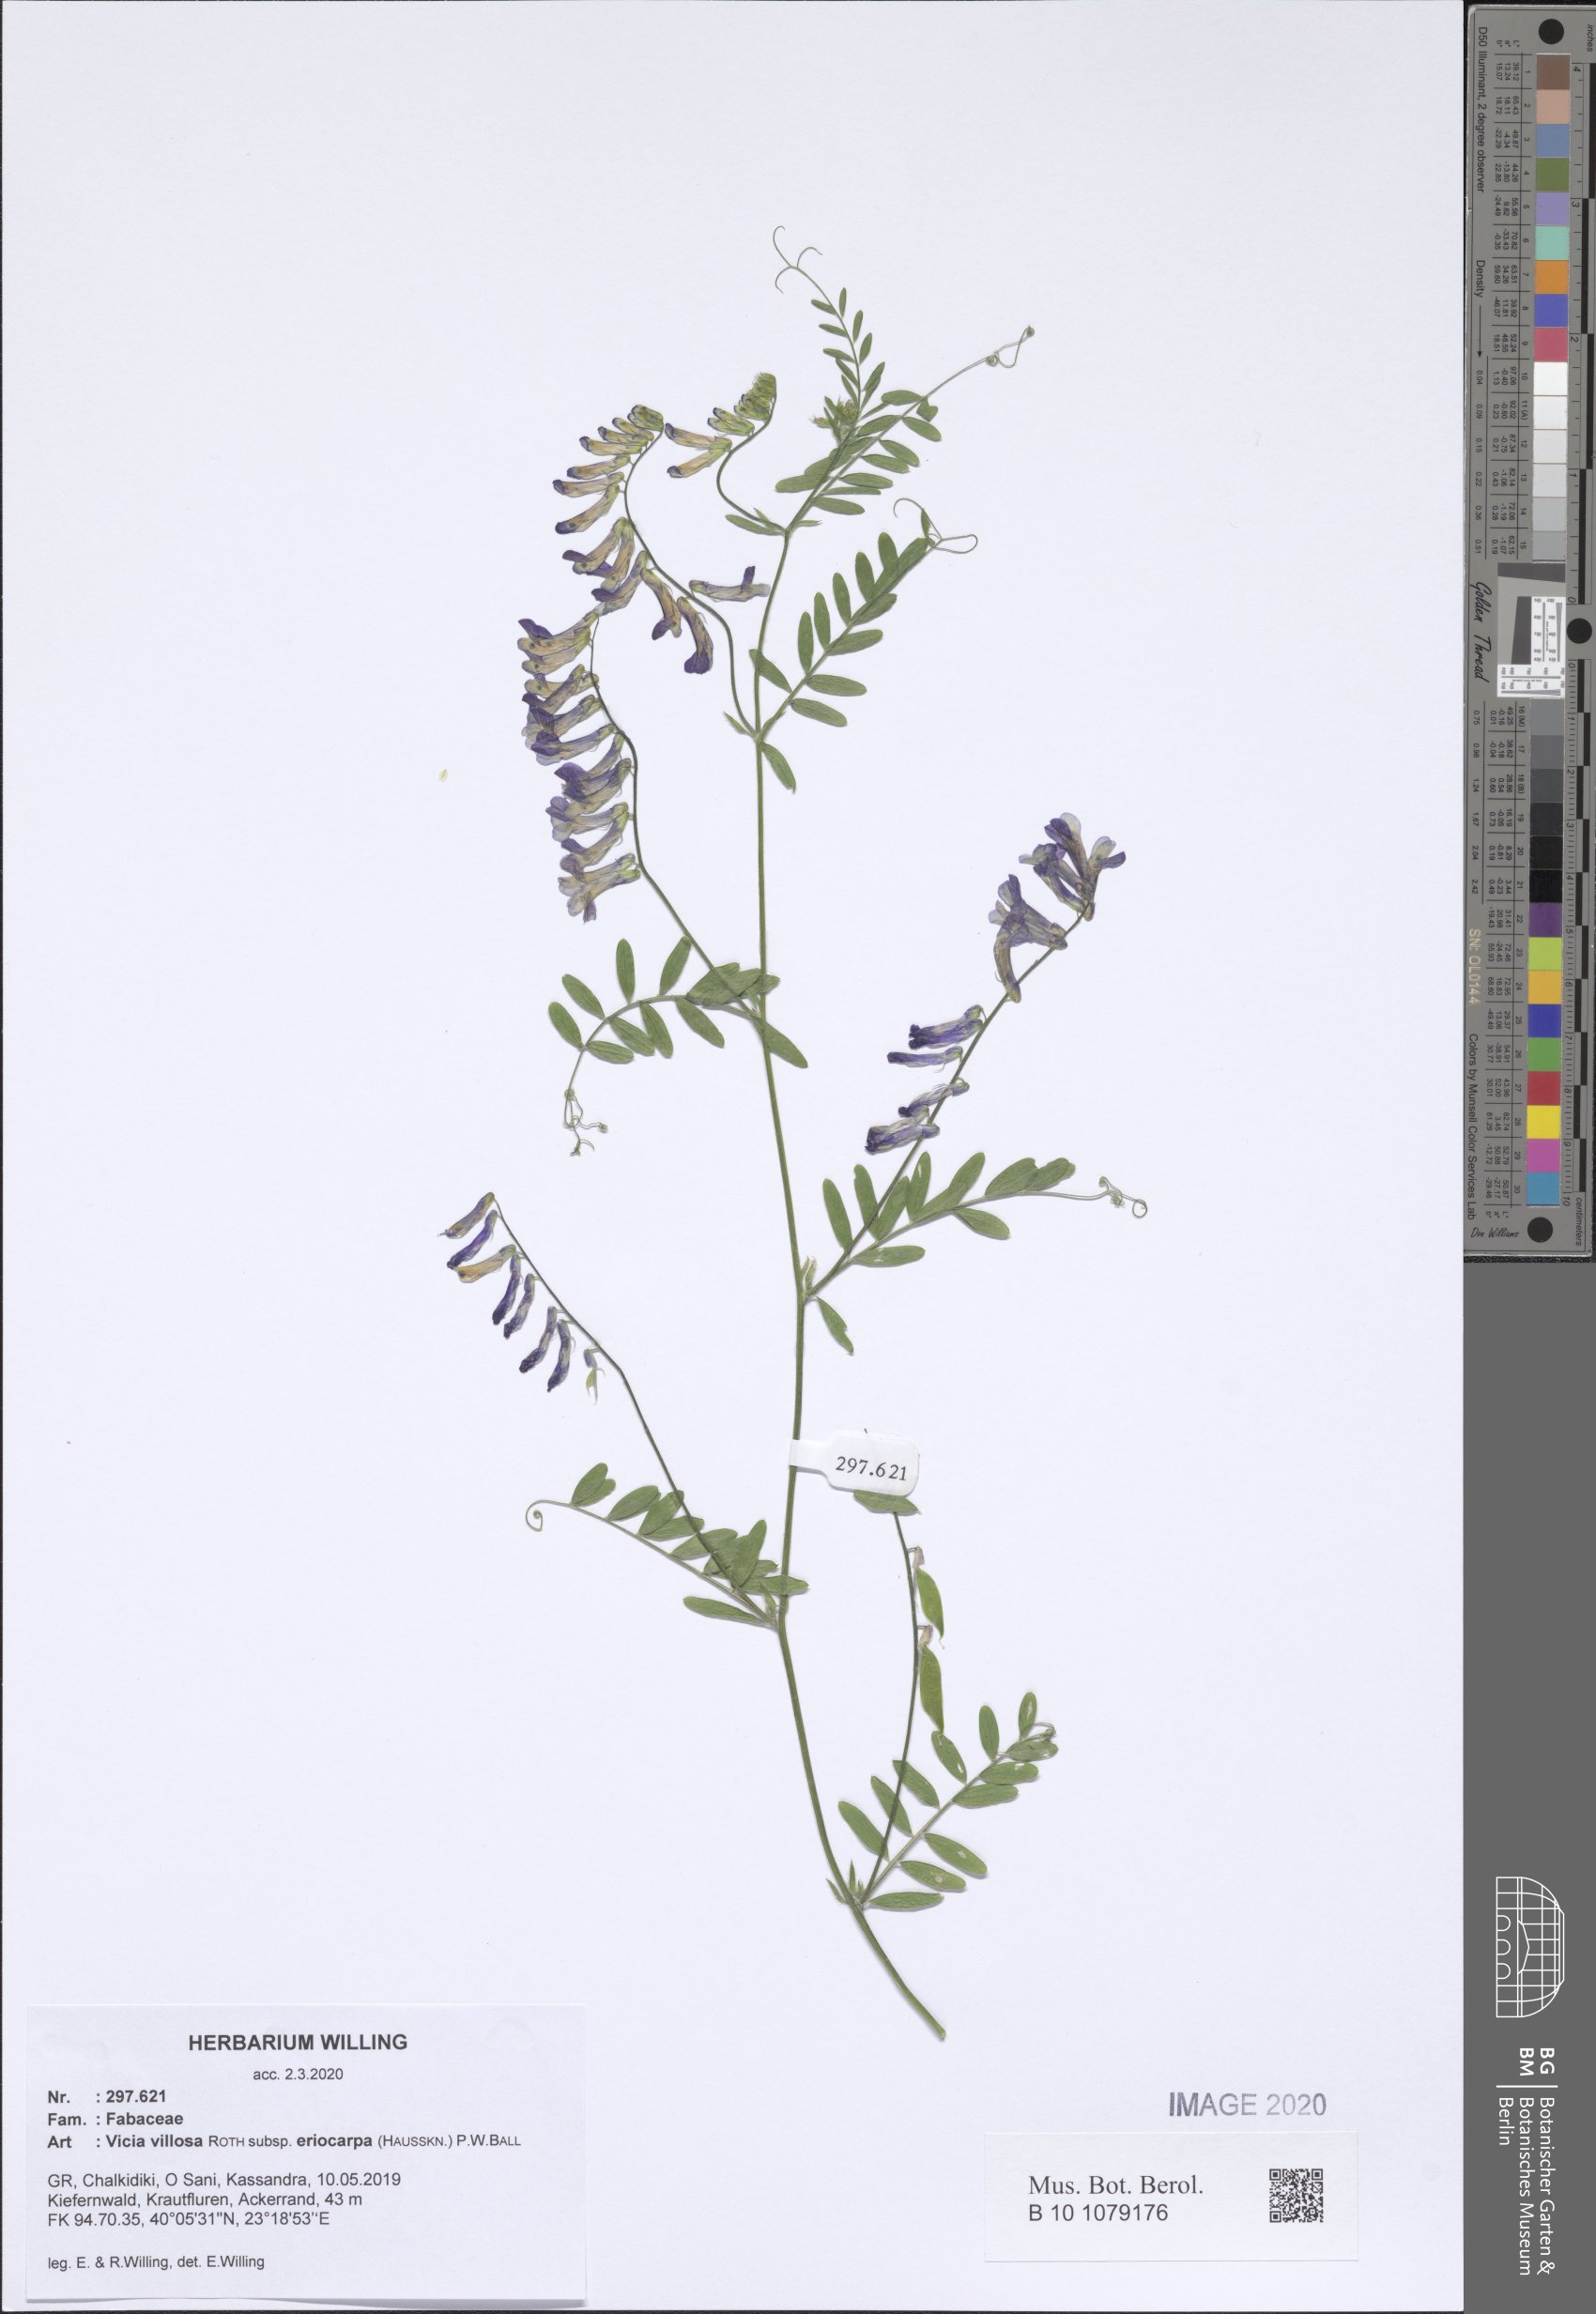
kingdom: Plantae
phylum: Tracheophyta
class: Magnoliopsida
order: Fabales
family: Fabaceae
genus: Vicia
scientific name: Vicia eriocarpa
